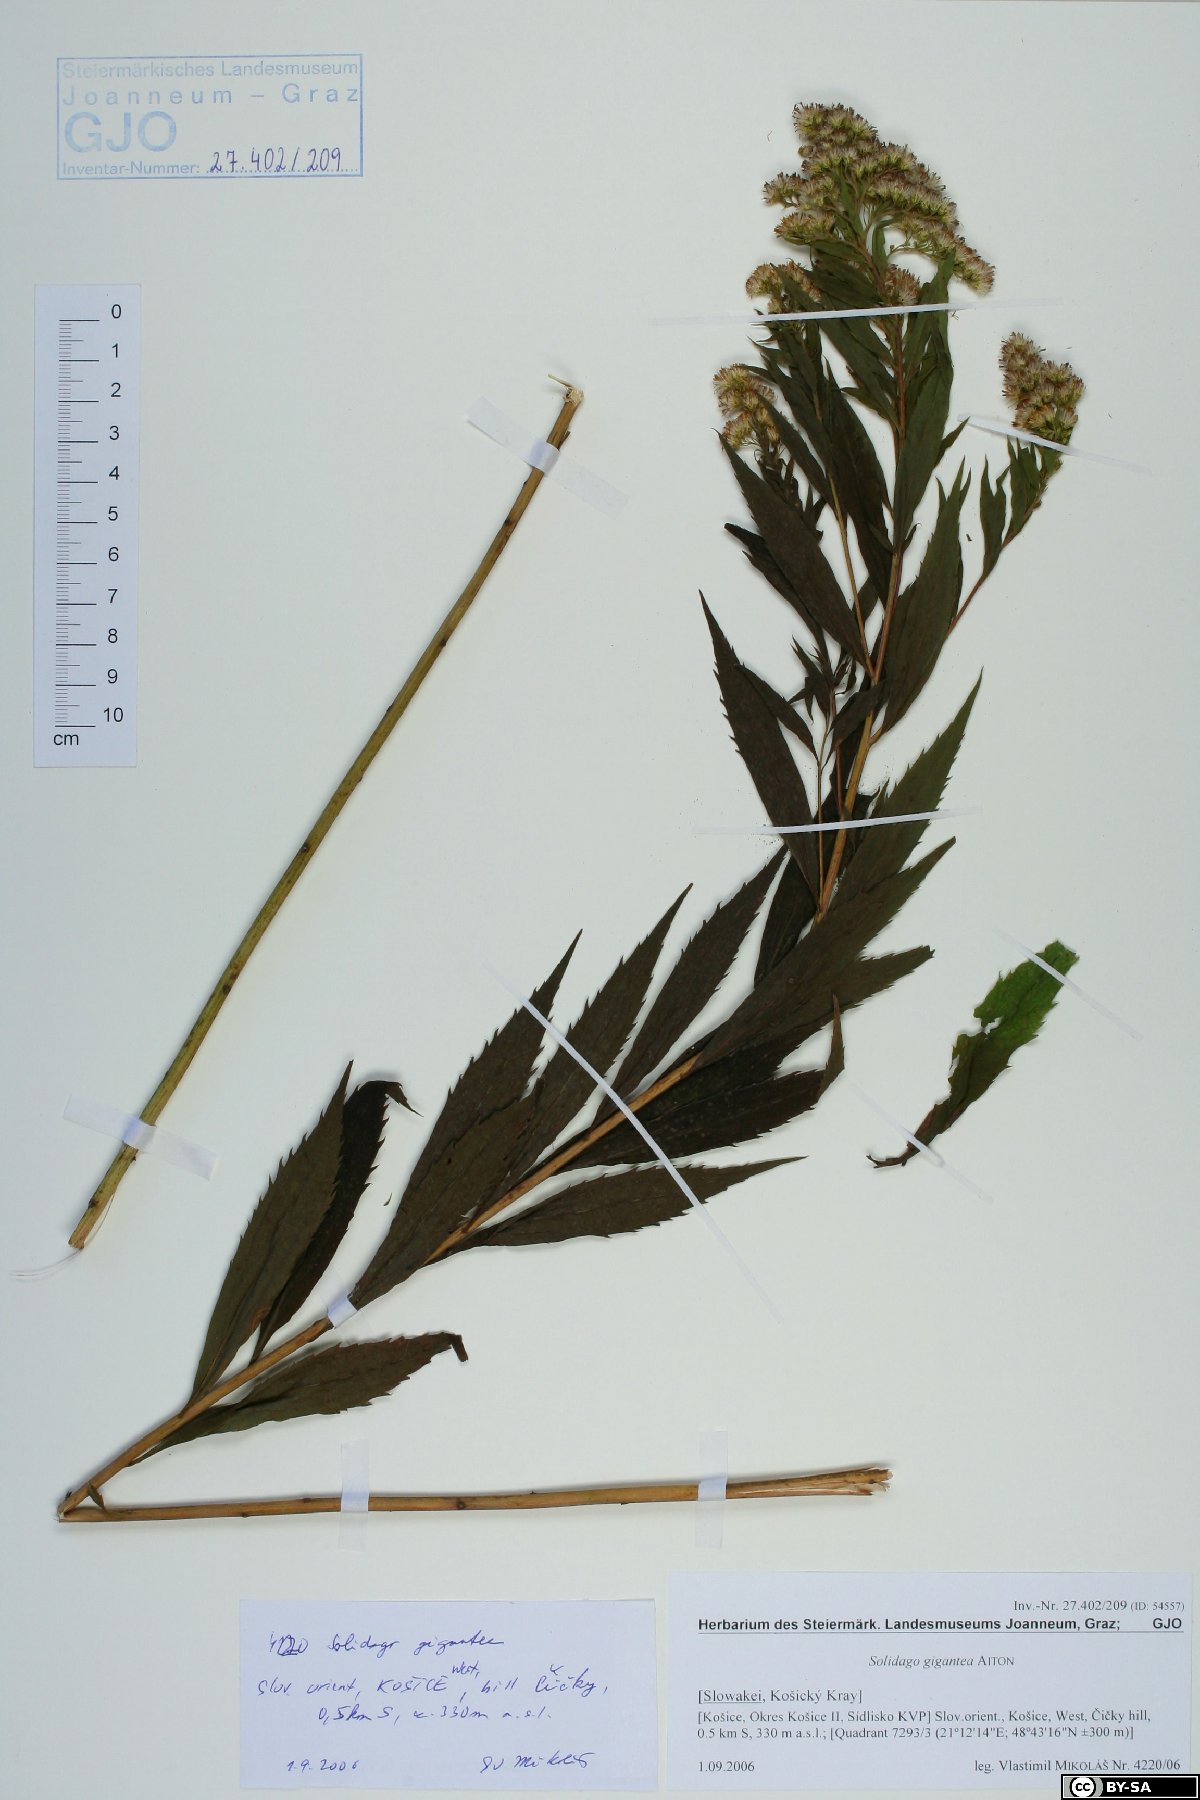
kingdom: Plantae
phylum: Tracheophyta
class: Magnoliopsida
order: Asterales
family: Asteraceae
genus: Solidago
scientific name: Solidago gigantea
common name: Giant goldenrod
